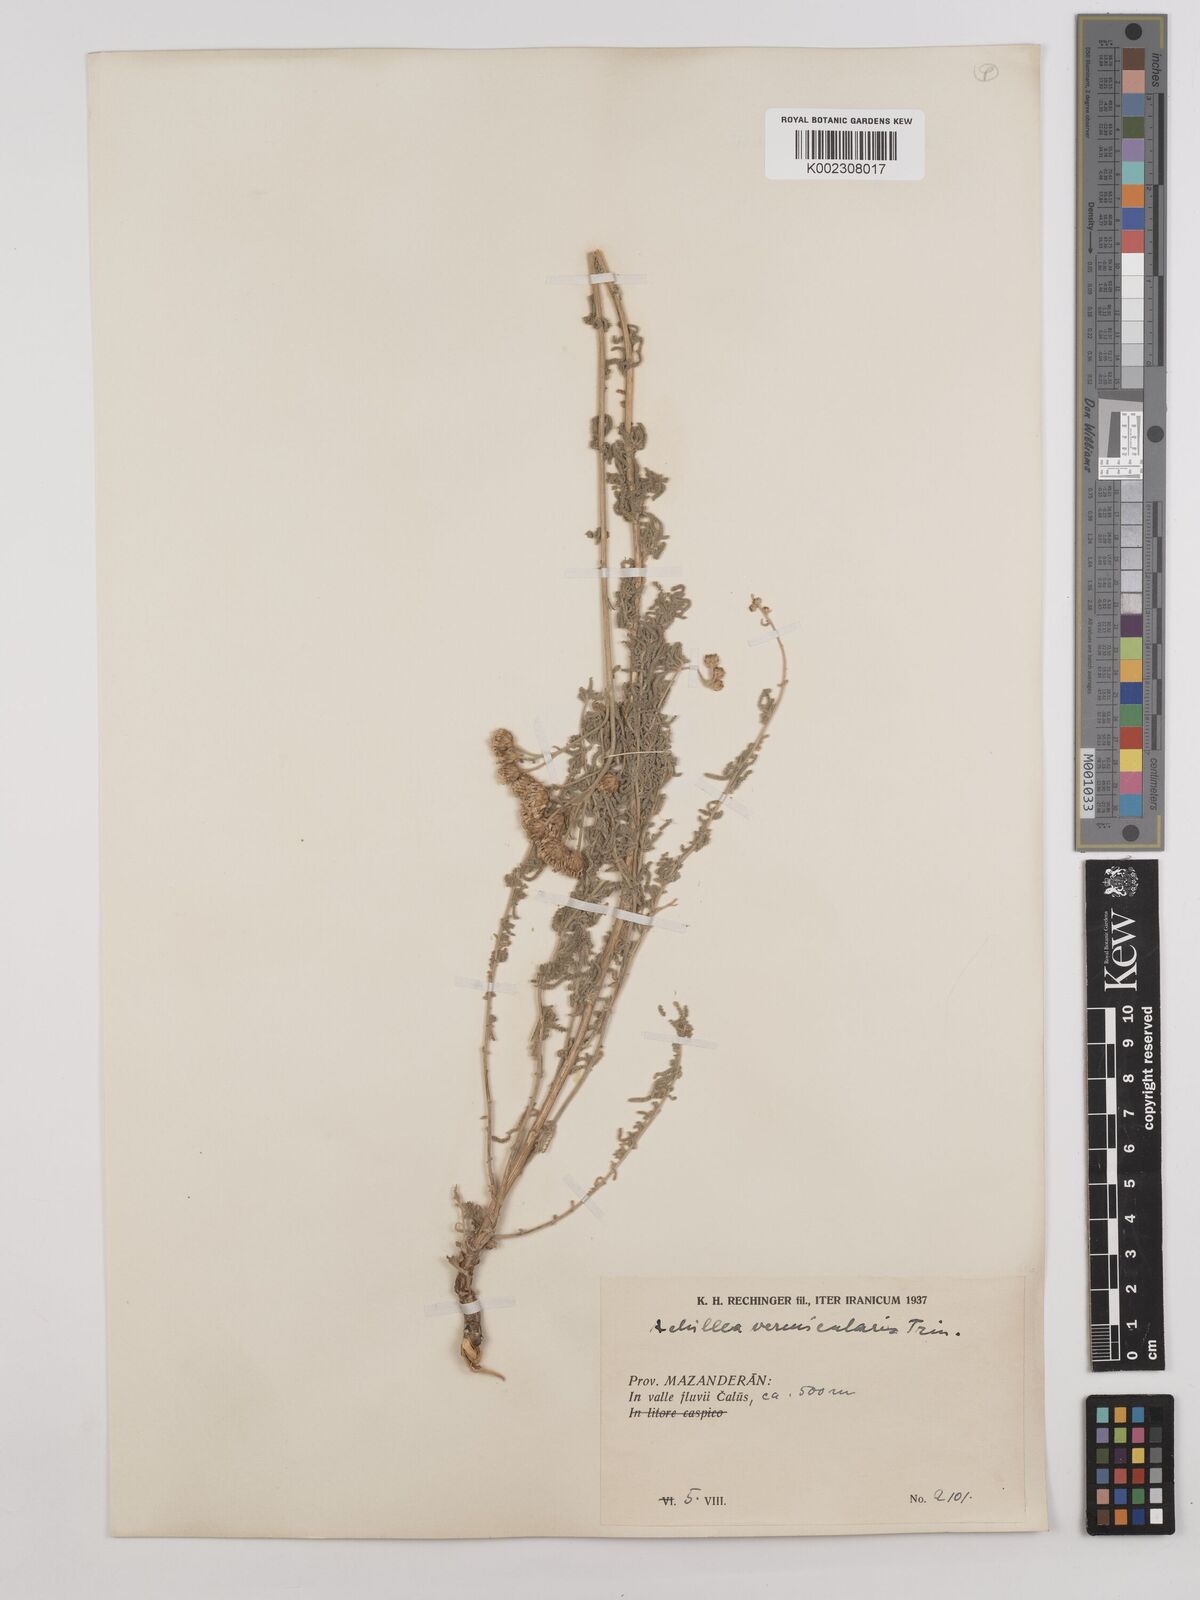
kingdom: Plantae
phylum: Tracheophyta
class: Magnoliopsida
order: Asterales
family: Asteraceae
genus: Achillea
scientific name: Achillea vermicularis
